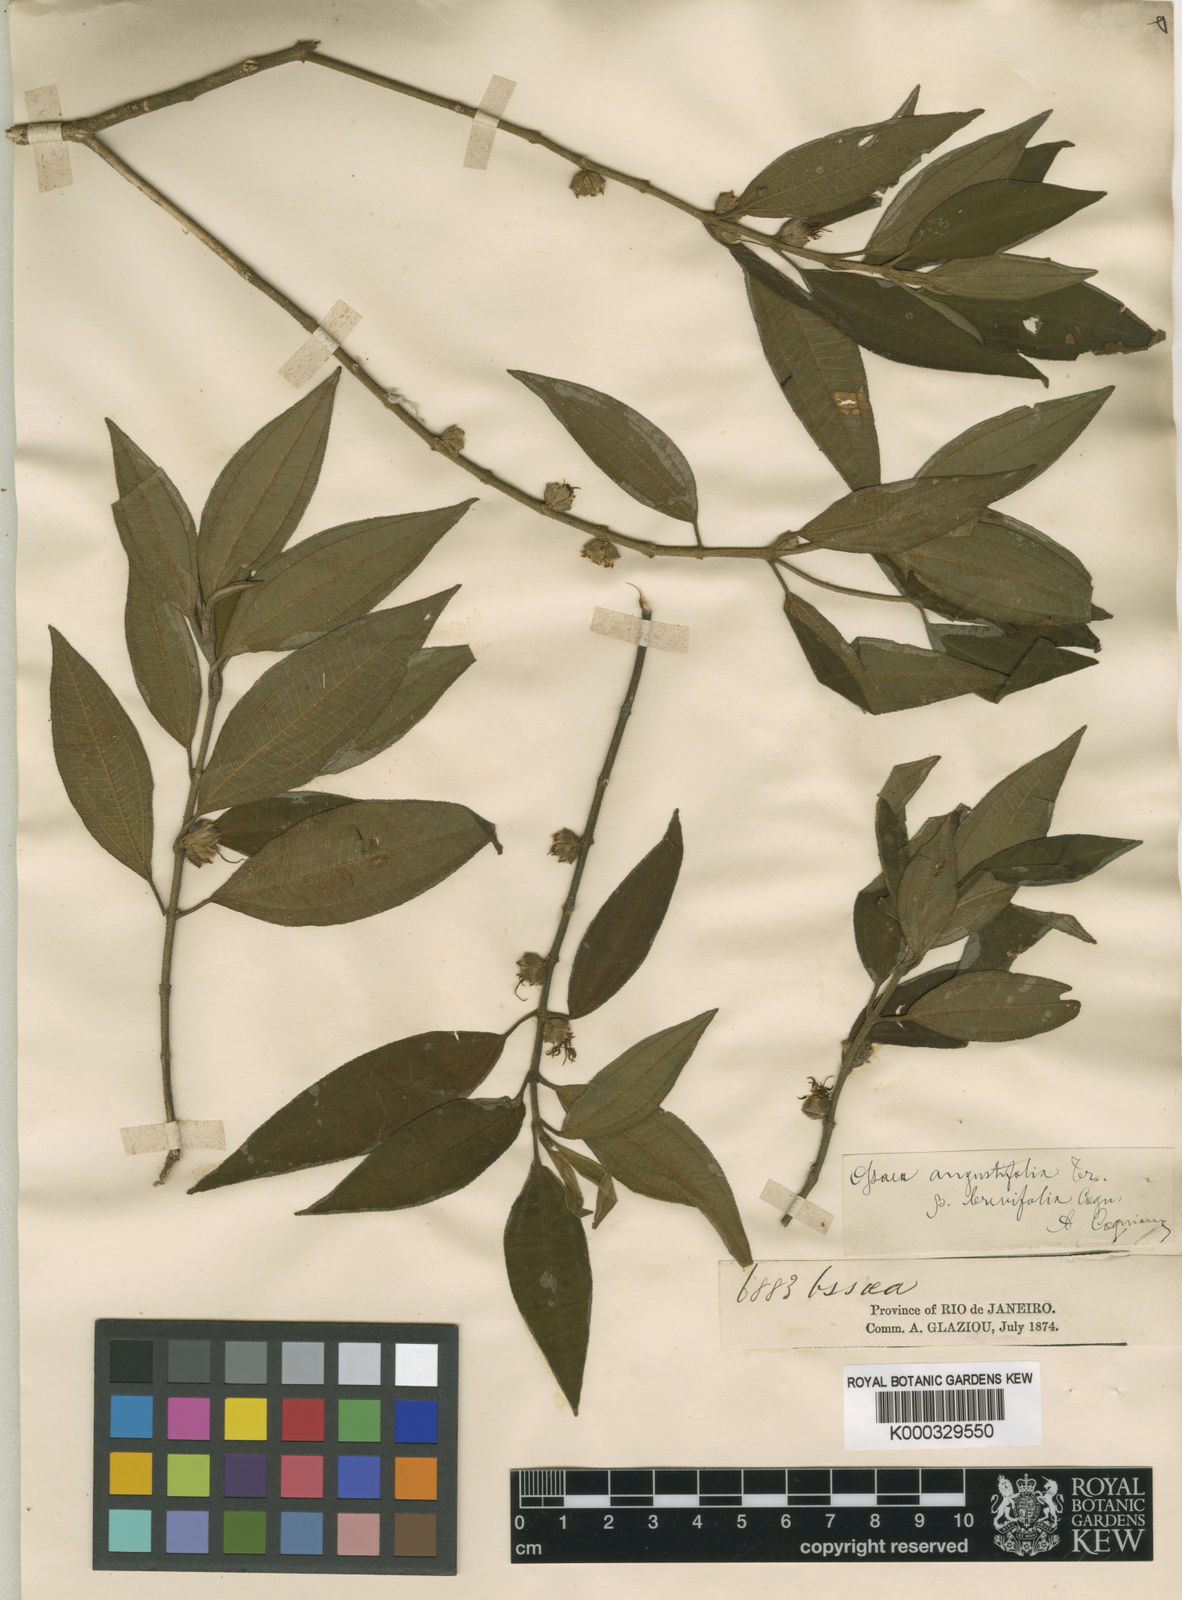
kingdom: Plantae
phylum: Tracheophyta
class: Magnoliopsida
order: Myrtales
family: Melastomataceae
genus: Miconia
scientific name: Miconia corcovadensis
